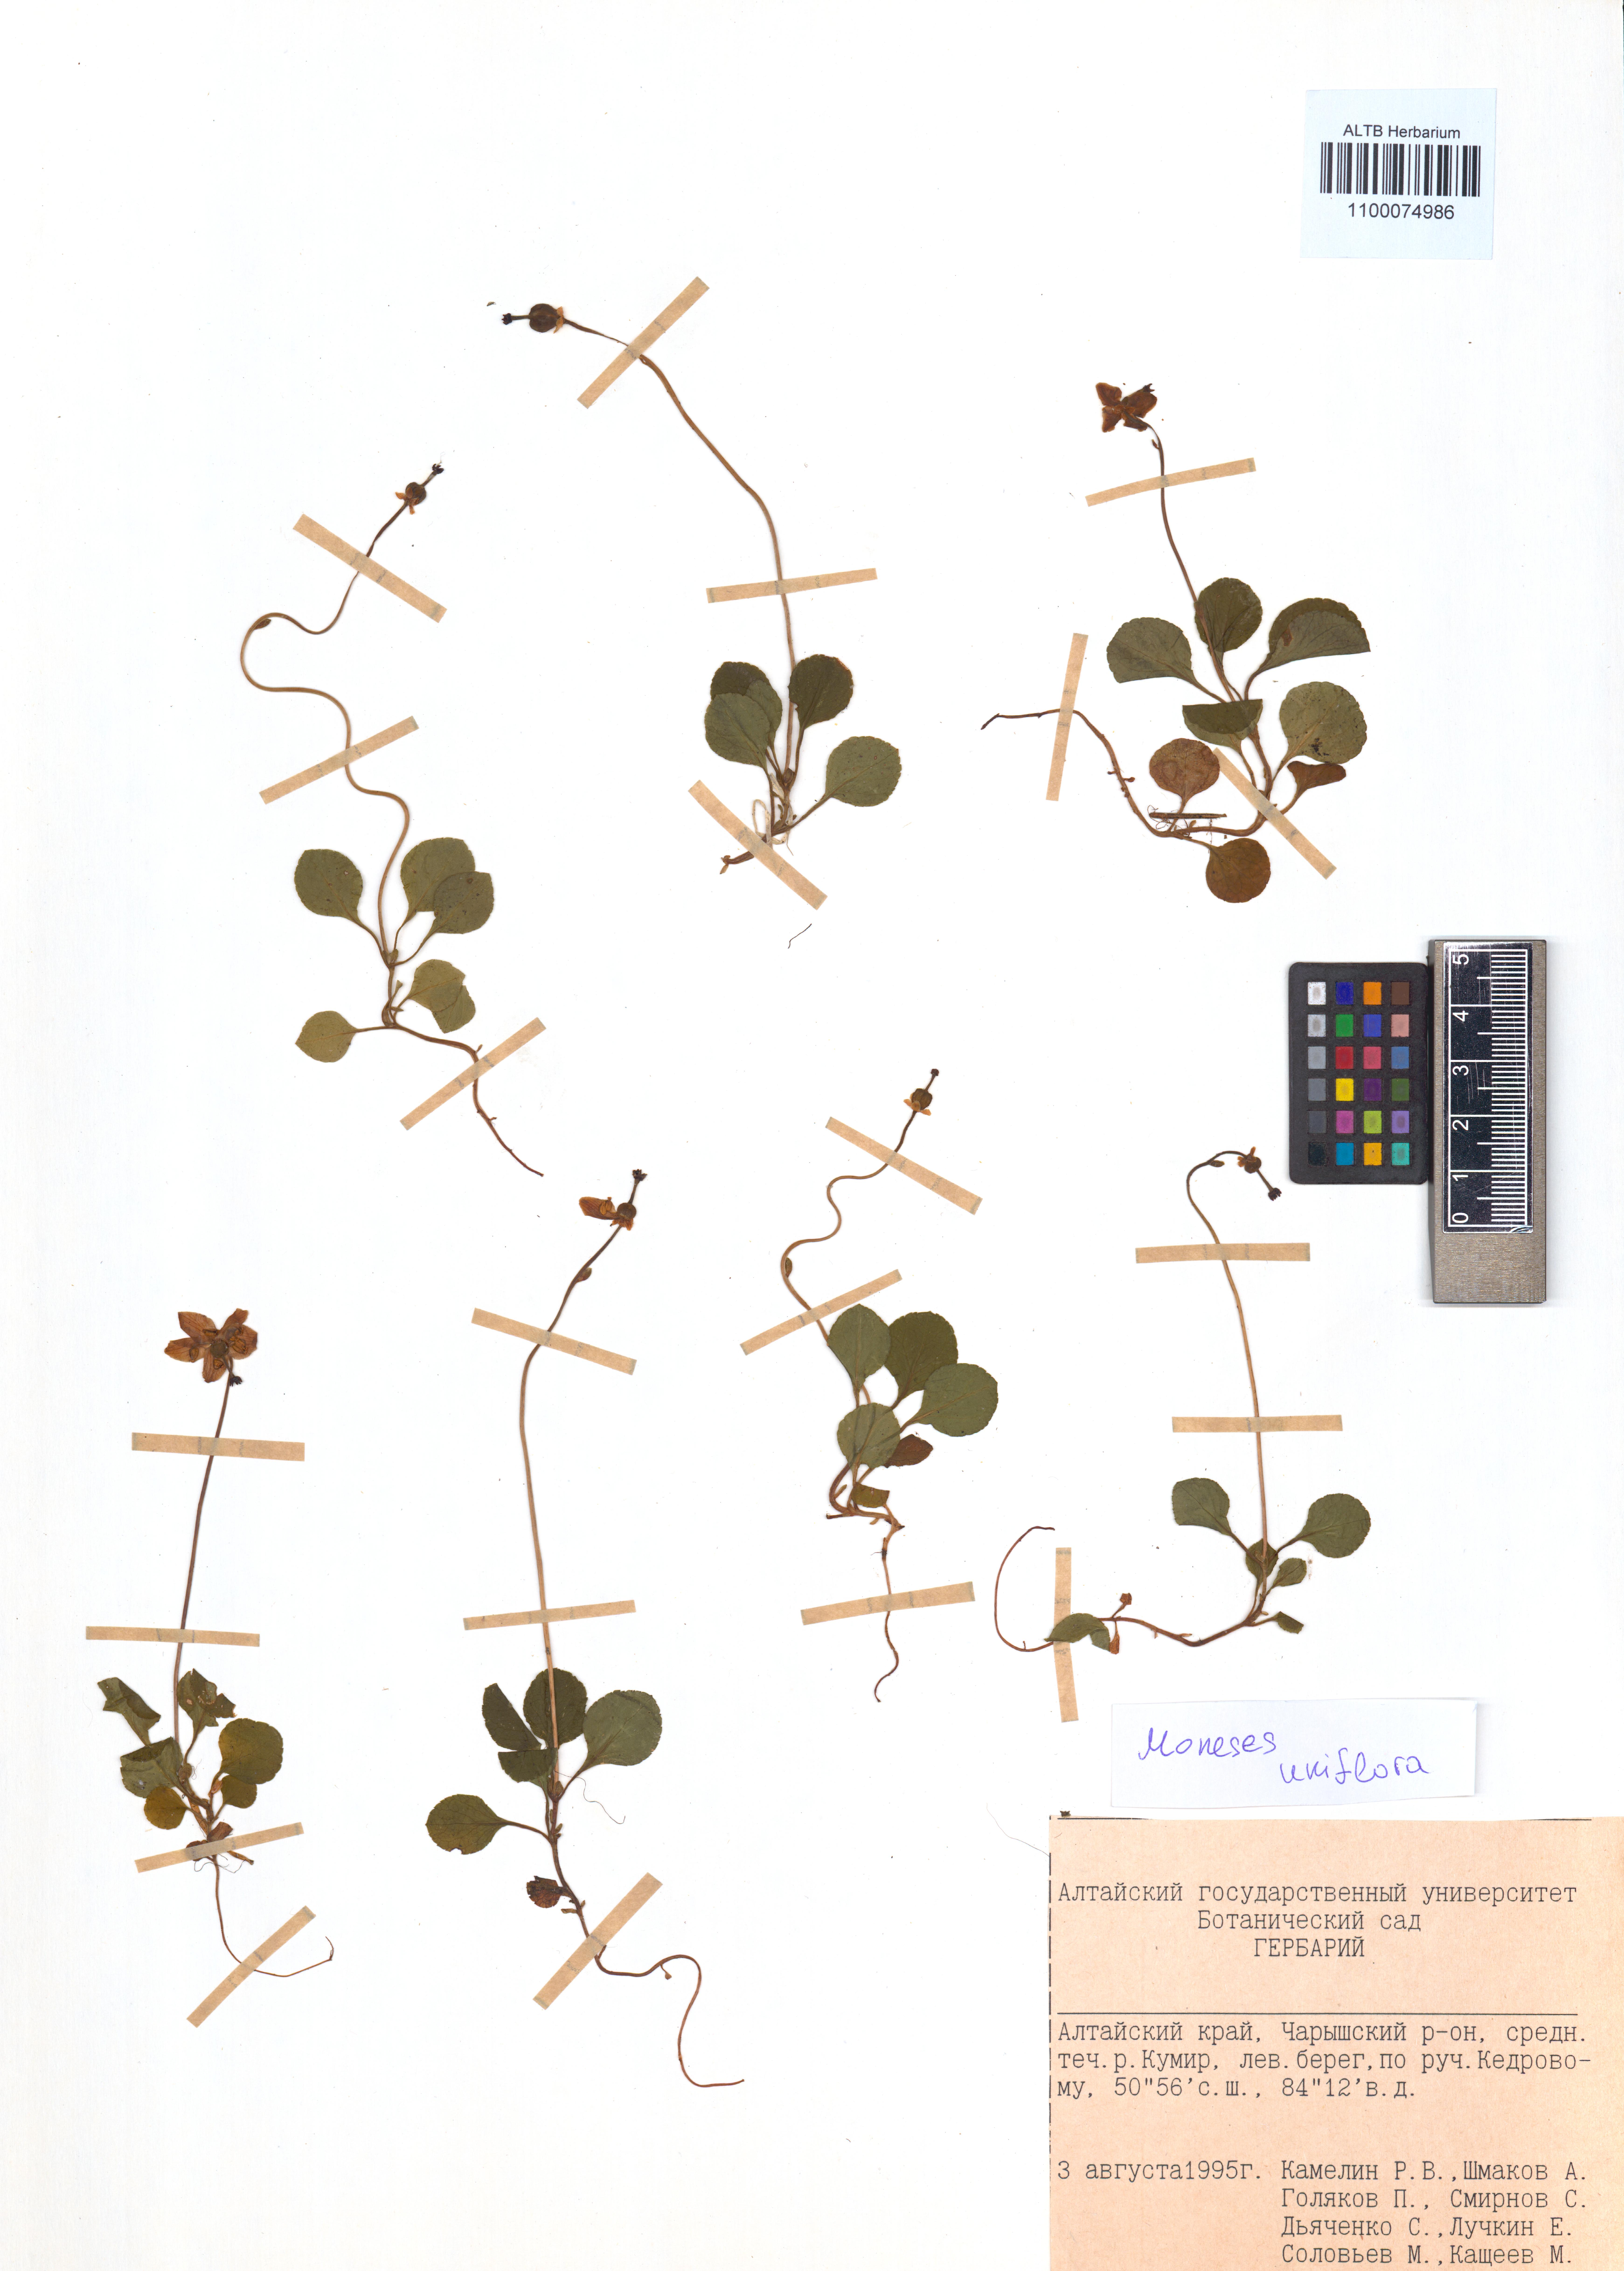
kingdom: Plantae
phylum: Tracheophyta
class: Magnoliopsida
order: Ericales
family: Ericaceae
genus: Moneses
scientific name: Moneses uniflora
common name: One-flowered wintergreen
